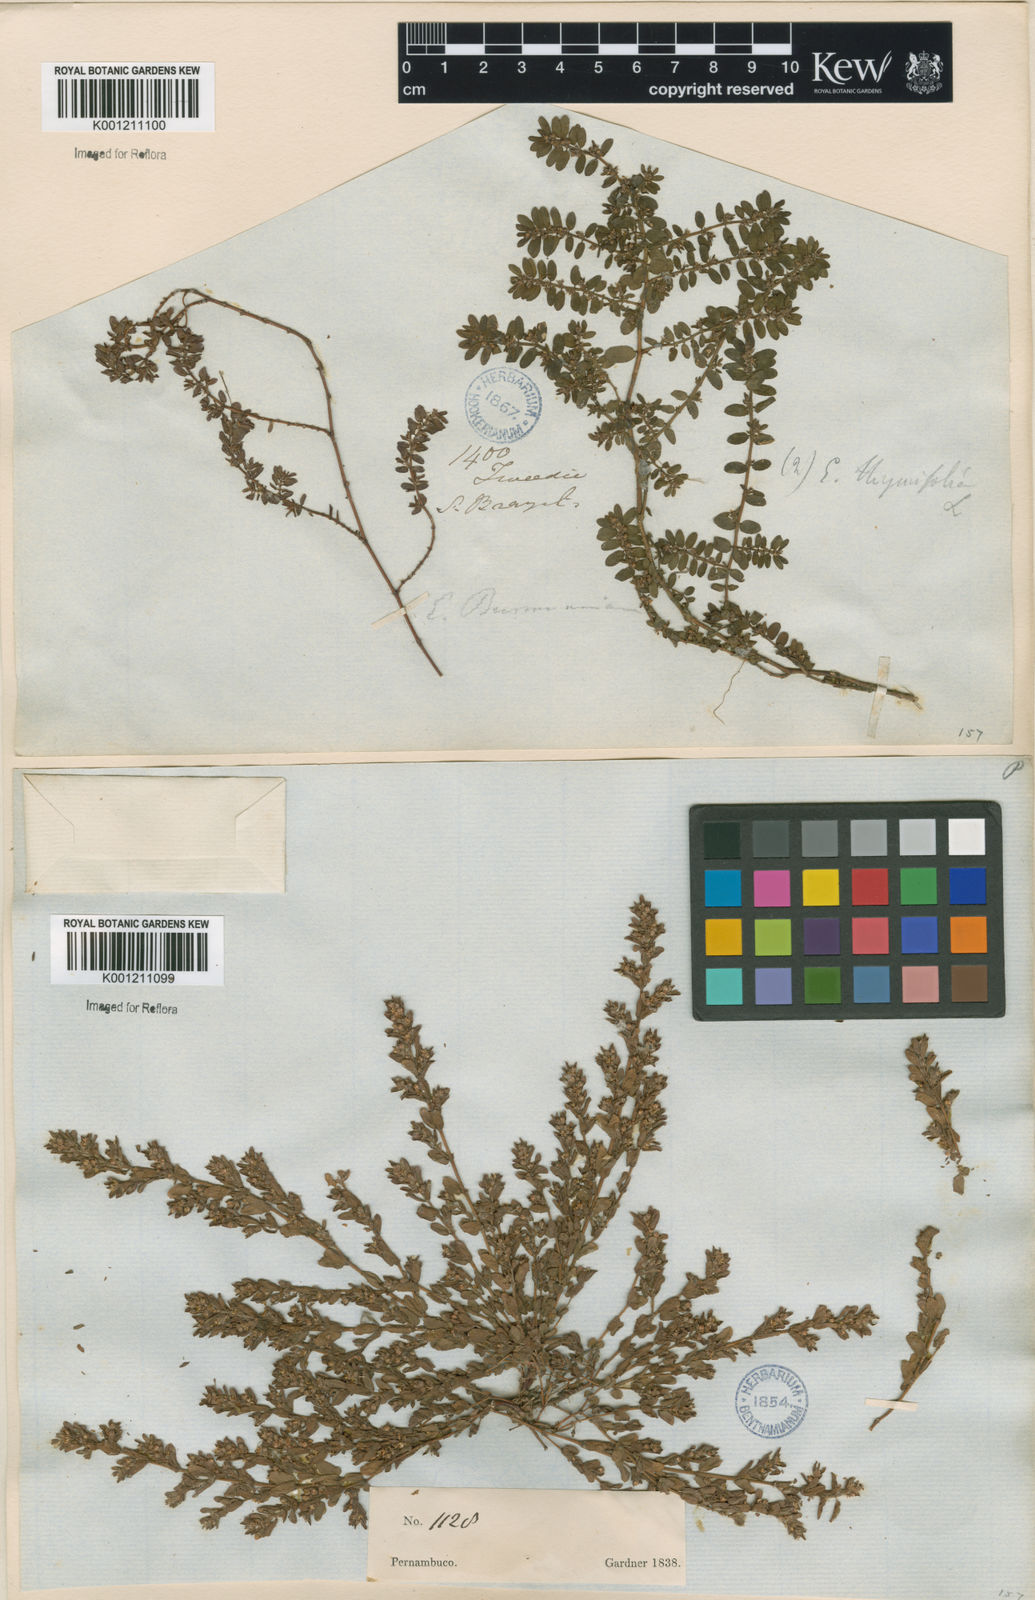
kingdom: Plantae
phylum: Tracheophyta
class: Magnoliopsida
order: Malpighiales
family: Euphorbiaceae
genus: Euphorbia
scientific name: Euphorbia thymifolia
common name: Gulf sandmat
